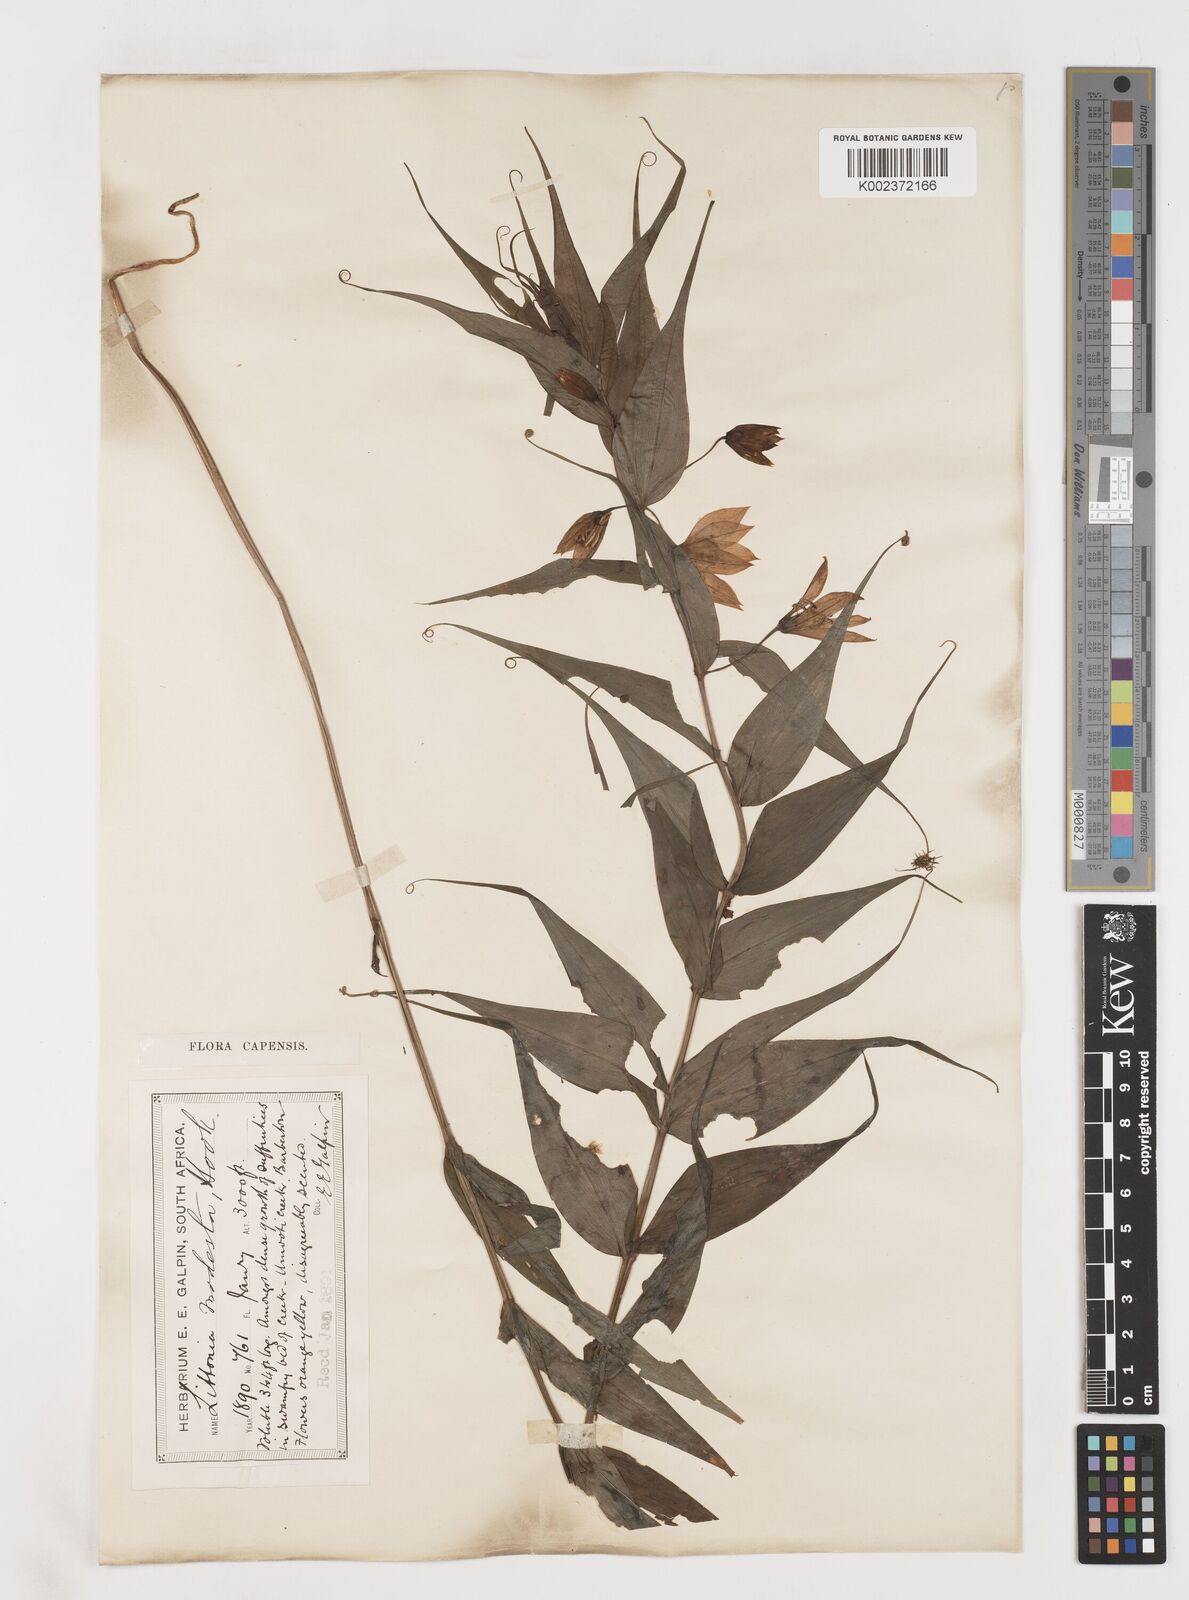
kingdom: Plantae
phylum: Tracheophyta
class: Liliopsida
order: Liliales
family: Colchicaceae
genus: Gloriosa
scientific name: Gloriosa modesta
